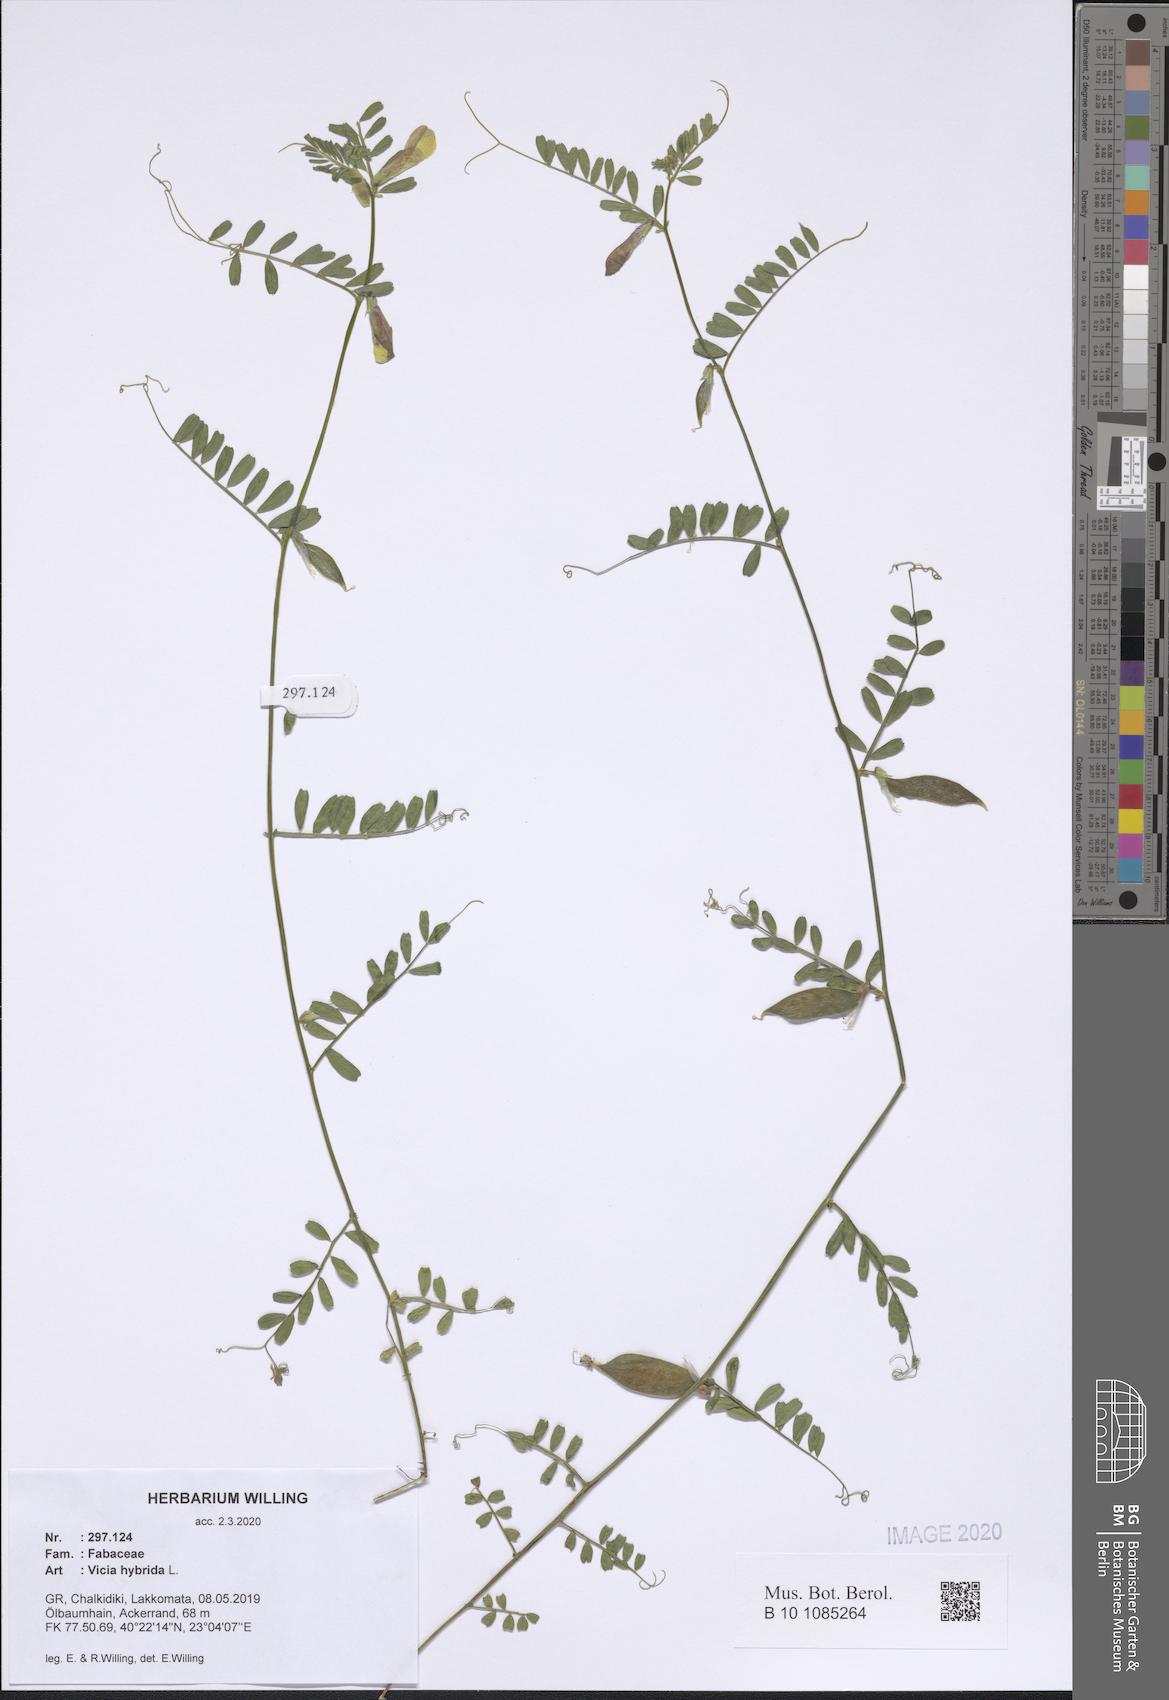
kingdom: Plantae
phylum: Tracheophyta
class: Magnoliopsida
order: Fabales
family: Fabaceae
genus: Vicia
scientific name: Vicia hybrida
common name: Hairy yellow vetch
